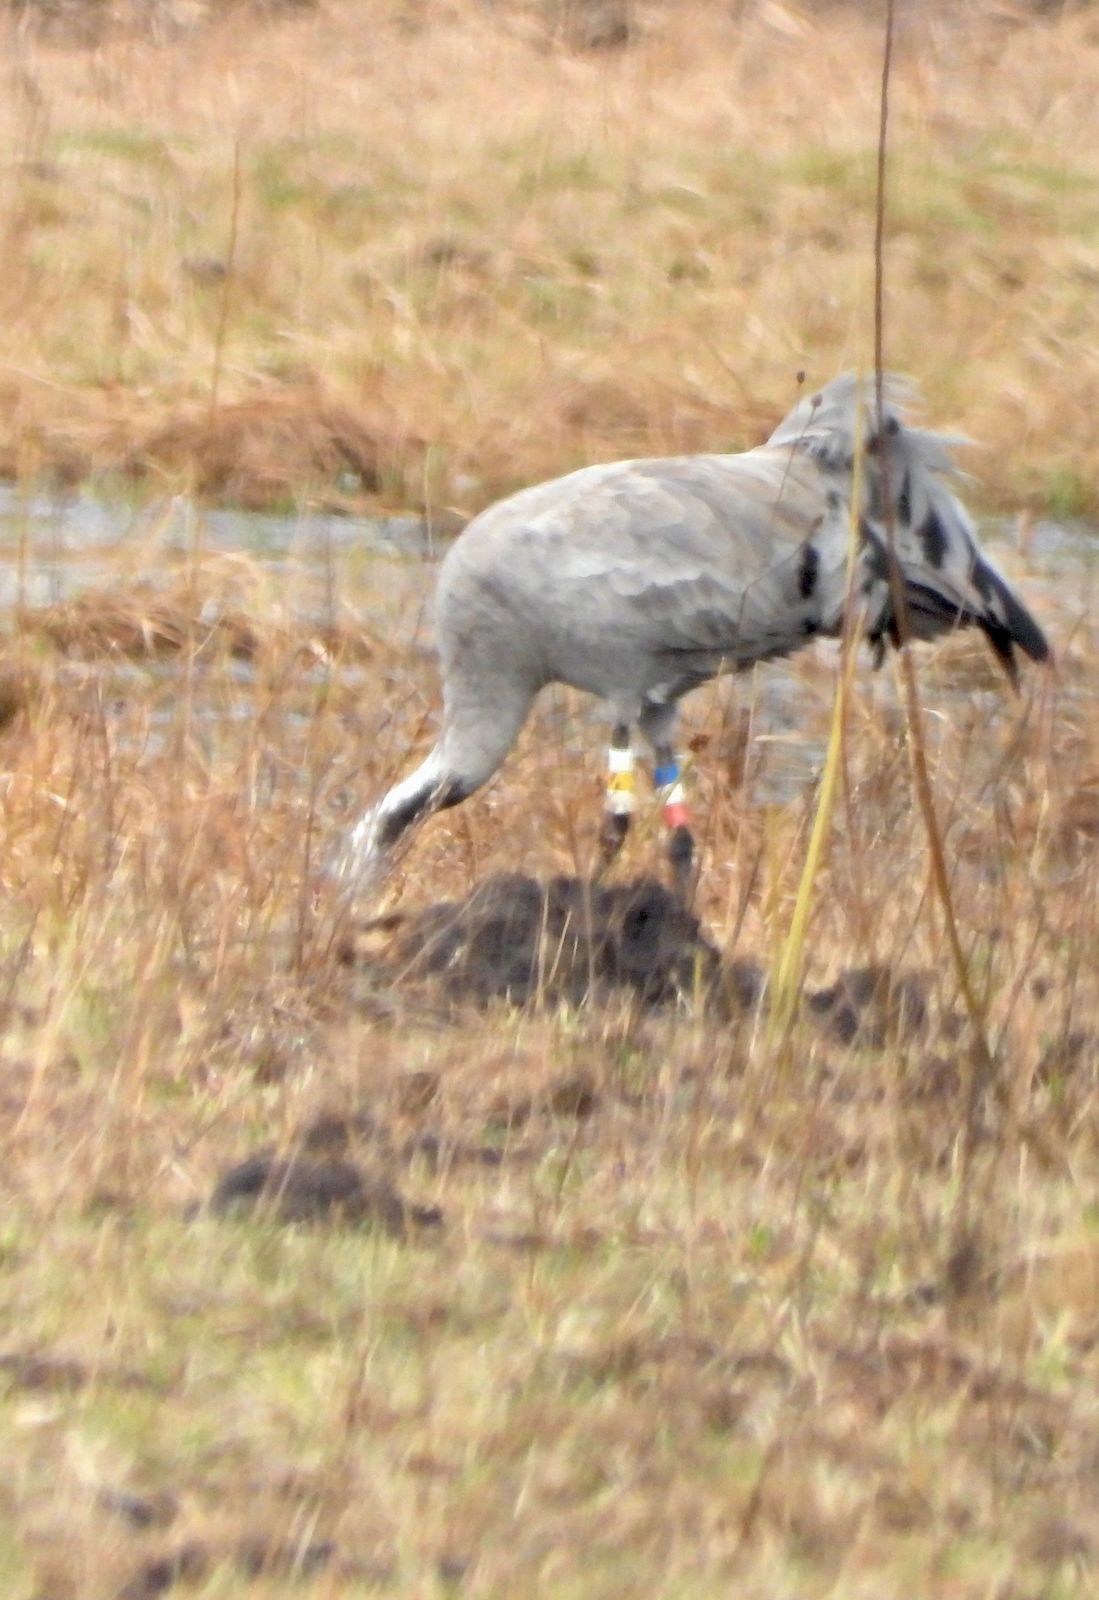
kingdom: Animalia
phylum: Chordata
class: Aves
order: Gruiformes
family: Gruidae
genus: Grus
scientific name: Grus grus
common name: Common crane
